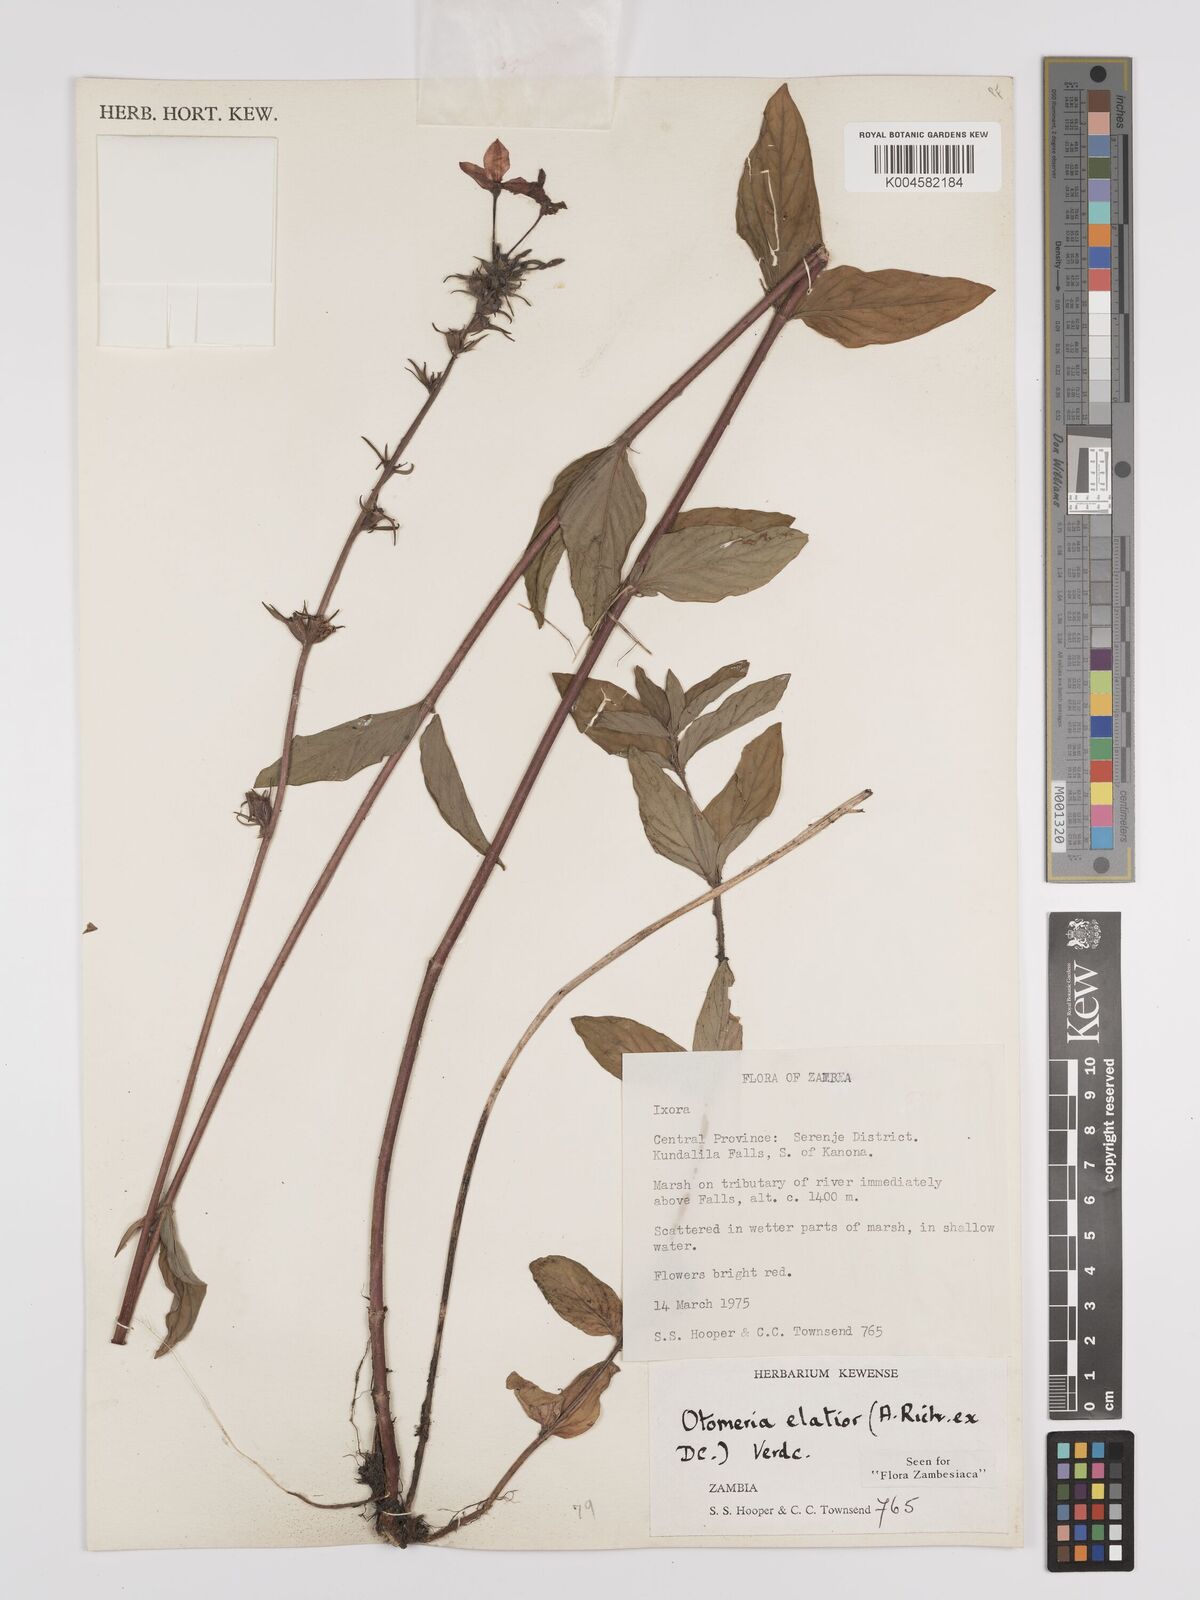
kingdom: Plantae
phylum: Tracheophyta
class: Magnoliopsida
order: Gentianales
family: Rubiaceae
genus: Otomeria
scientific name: Otomeria elatior
